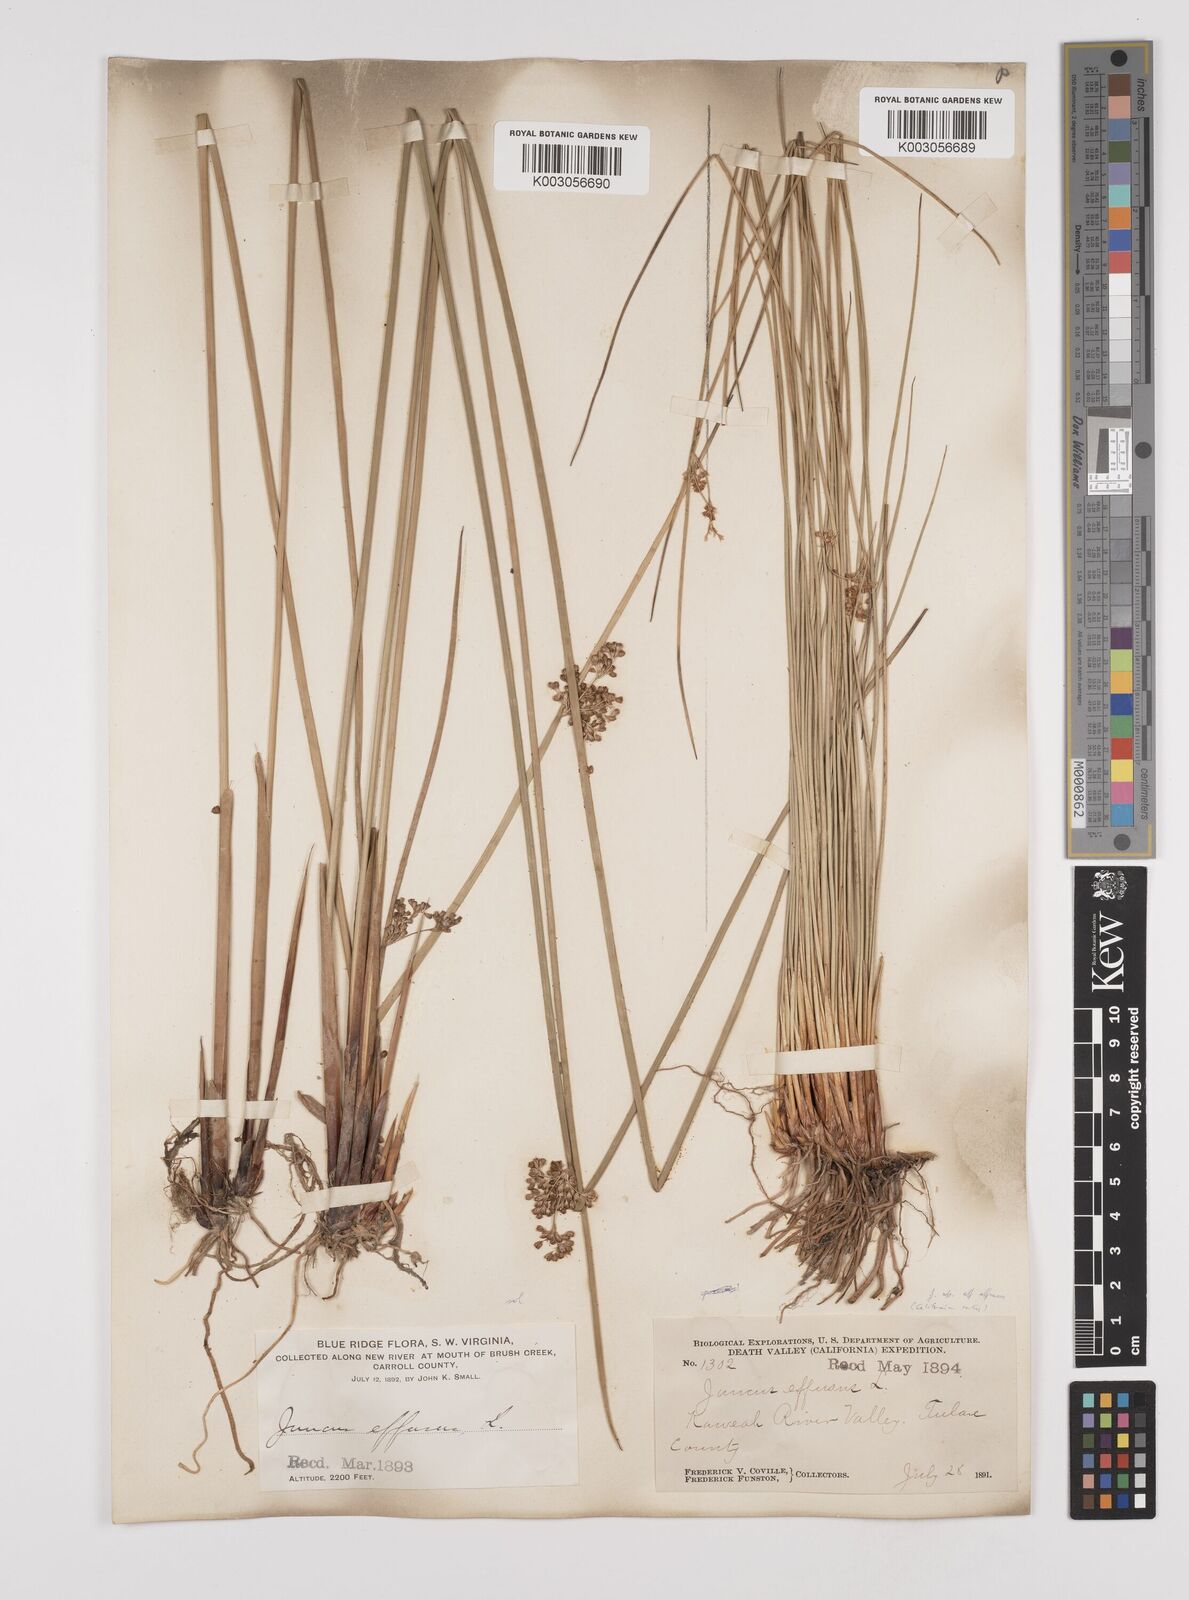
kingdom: Plantae
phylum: Tracheophyta
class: Liliopsida
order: Poales
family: Juncaceae
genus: Juncus
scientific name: Juncus effusus
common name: Soft rush
